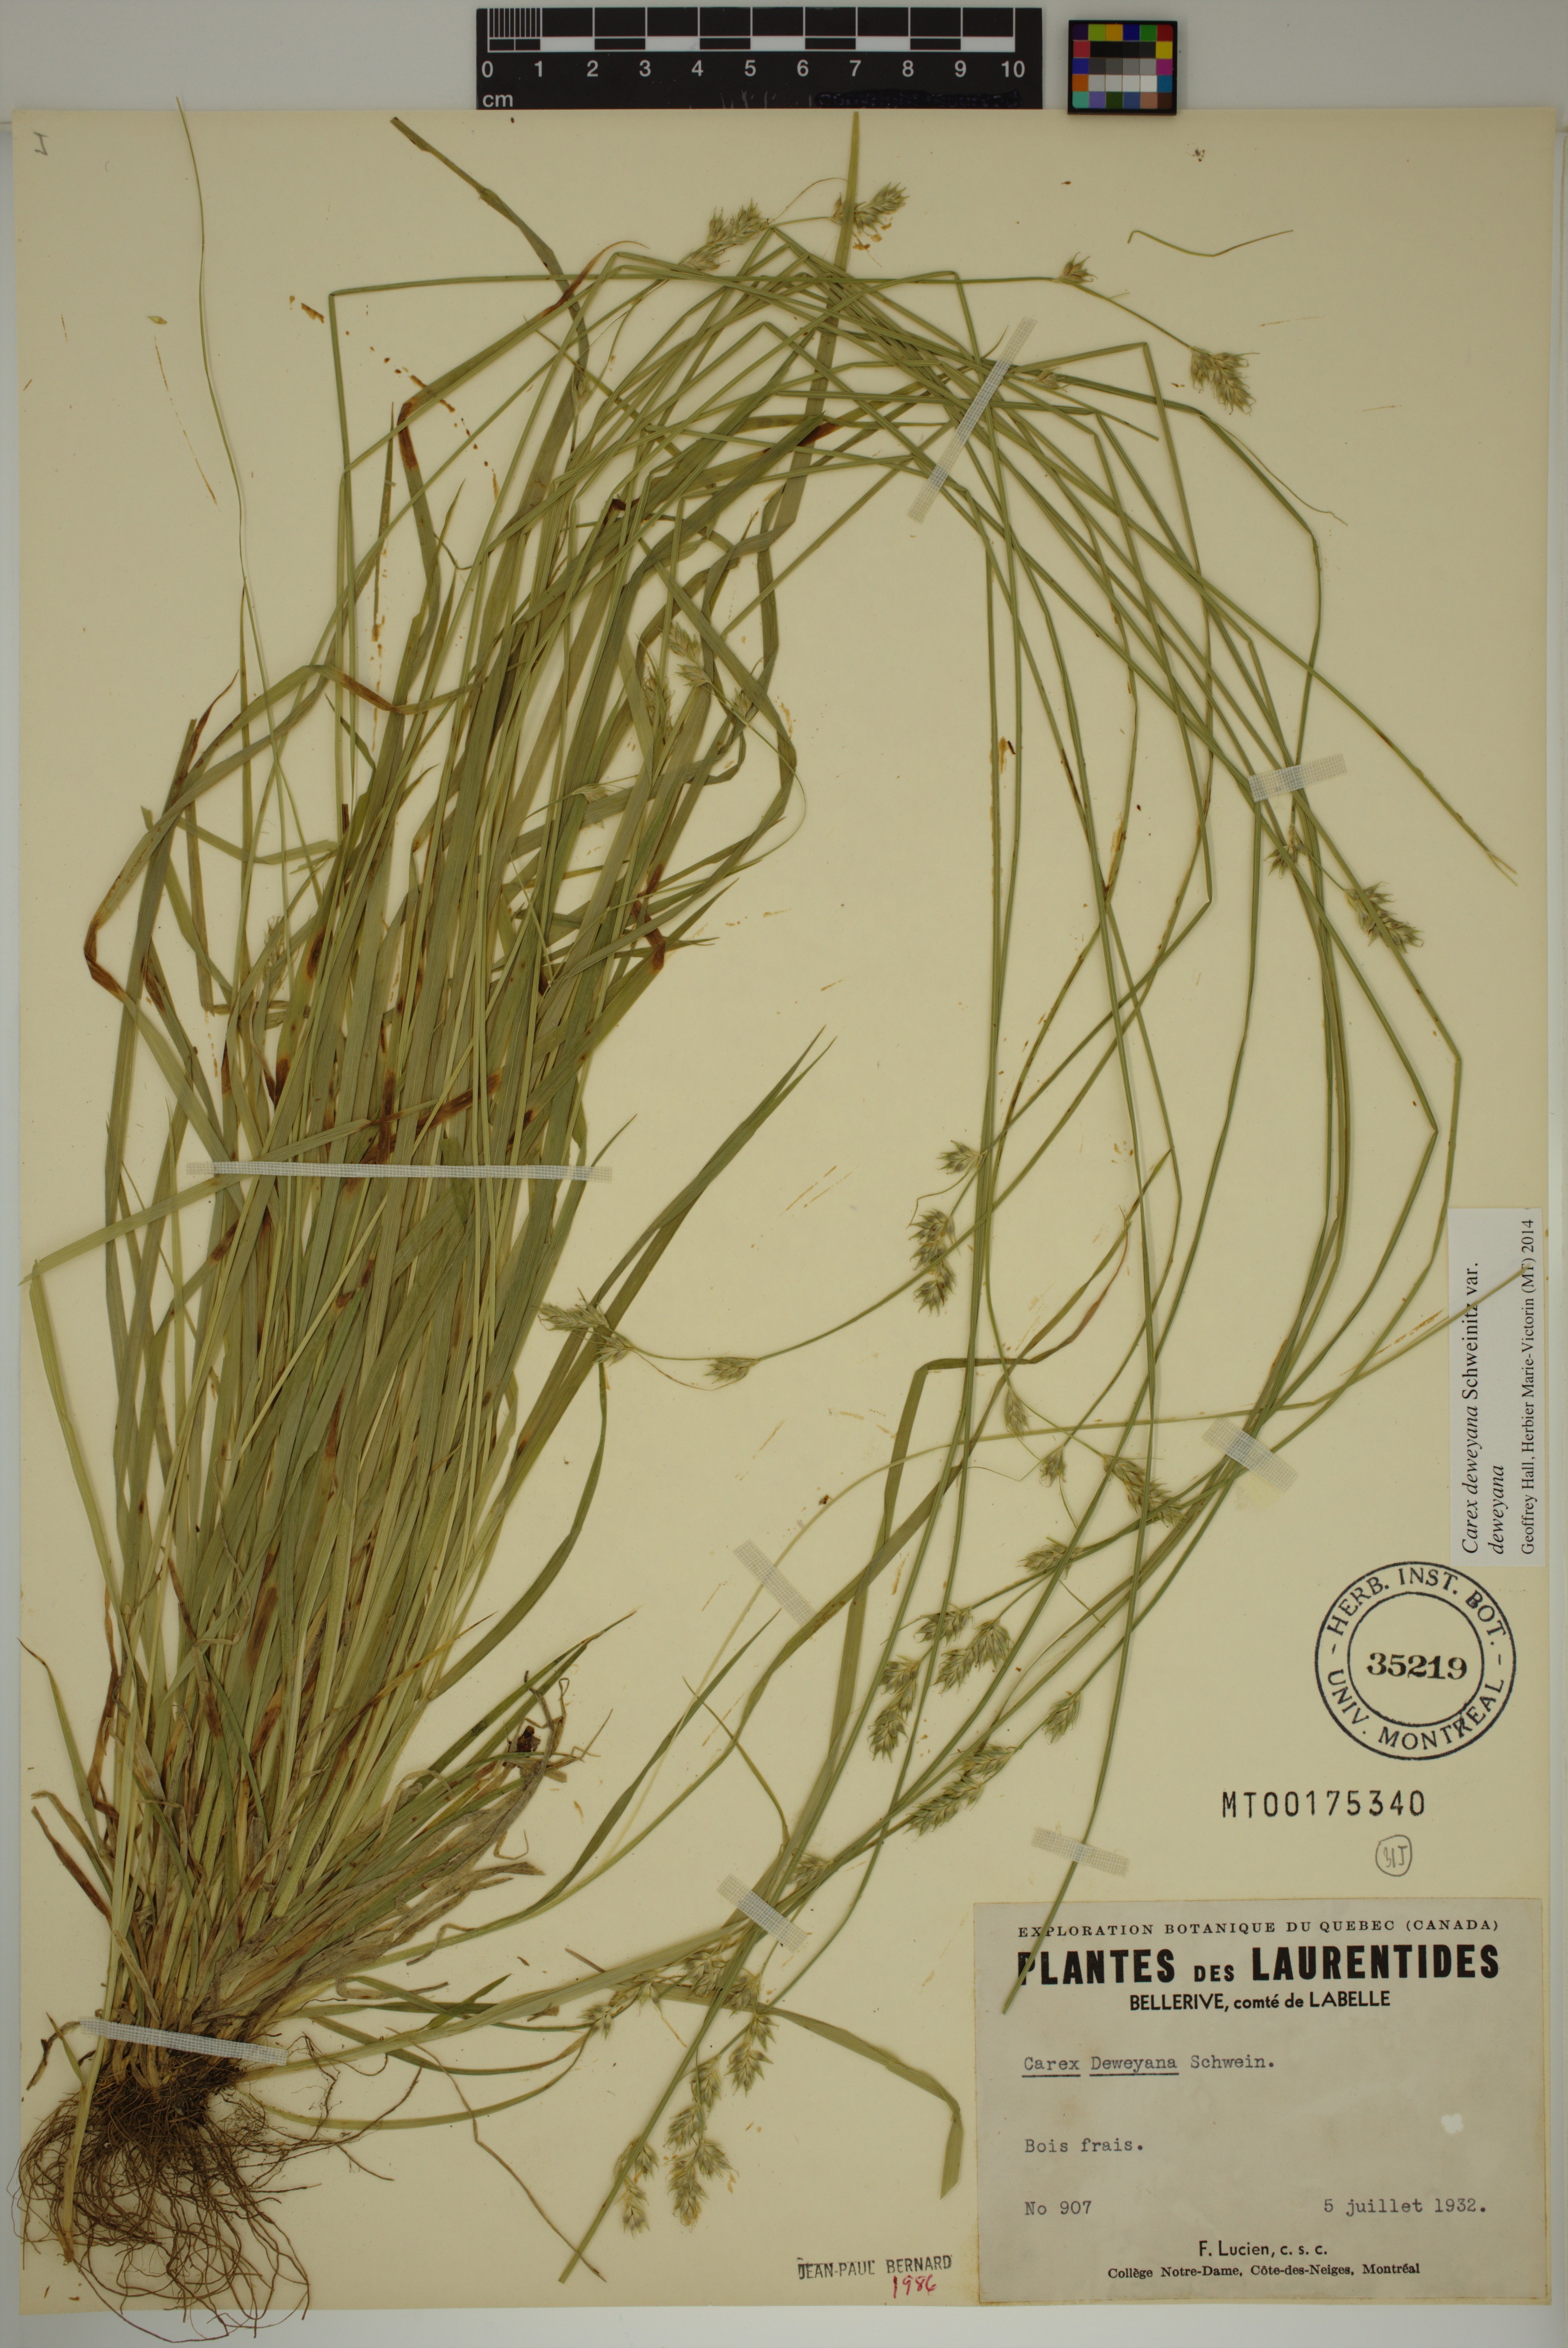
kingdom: Plantae
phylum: Tracheophyta
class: Liliopsida
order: Poales
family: Cyperaceae
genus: Carex
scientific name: Carex deweyana
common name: Dewey's sedge
